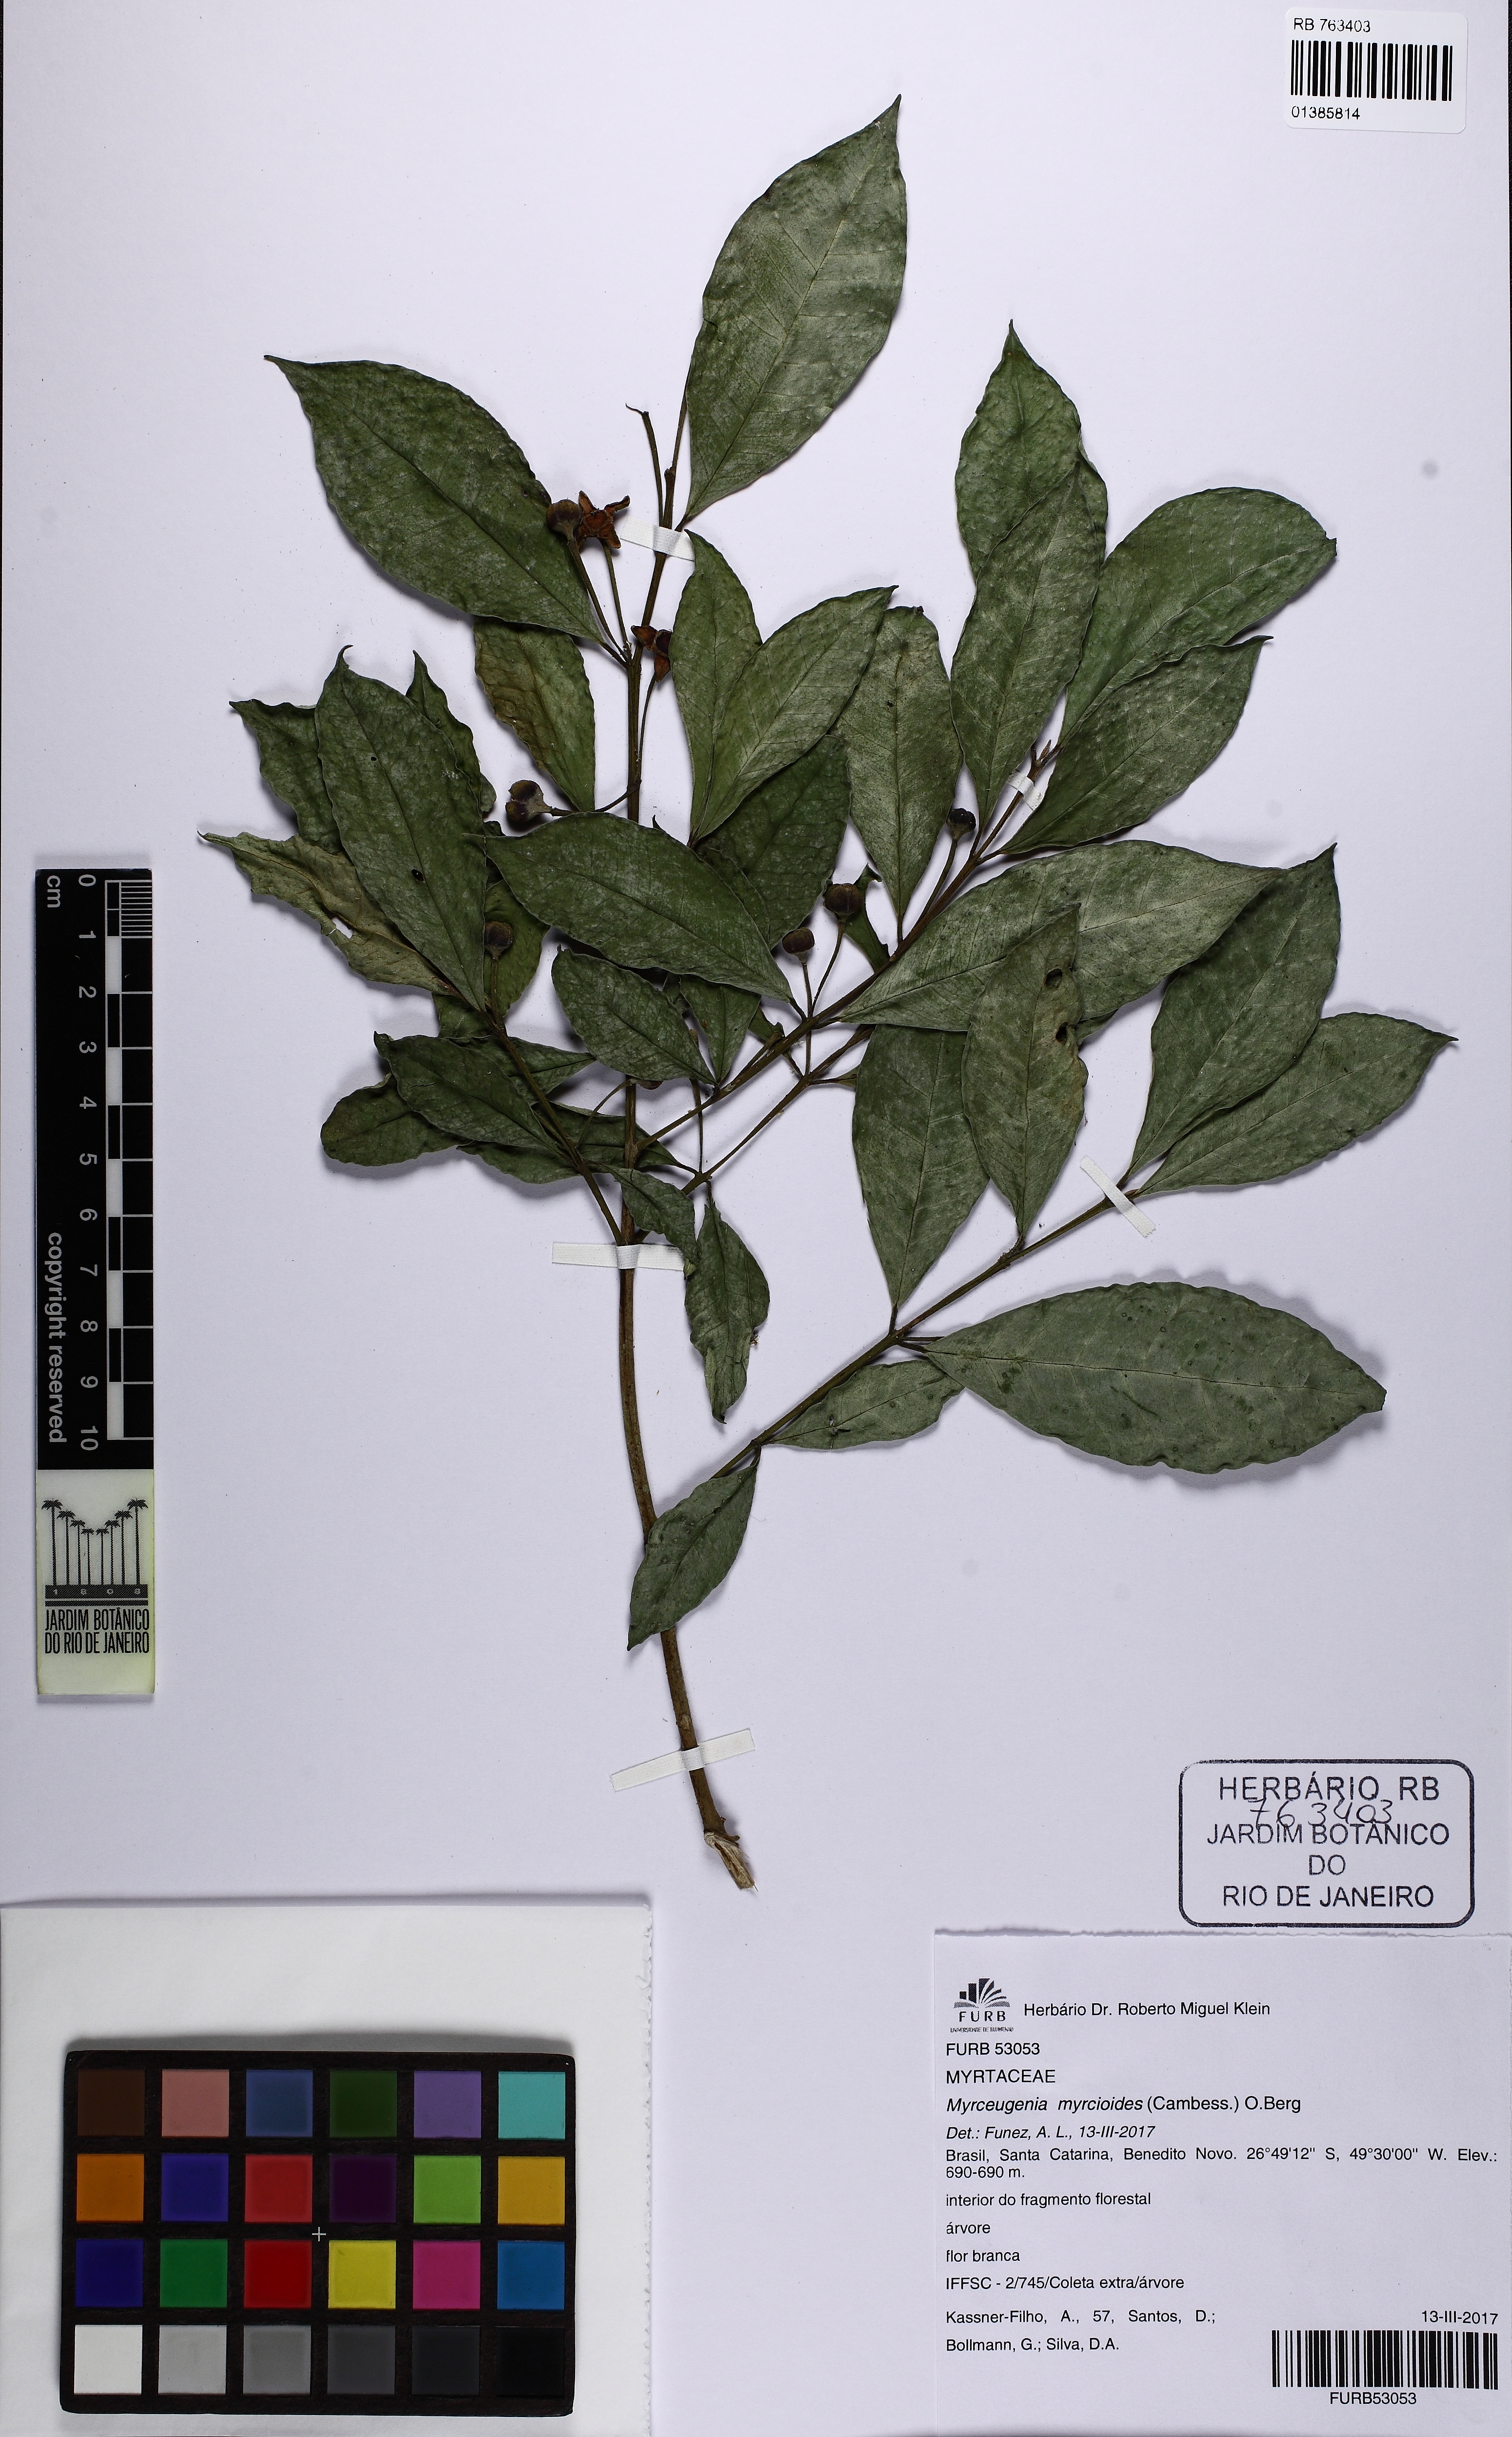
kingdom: Plantae
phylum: Tracheophyta
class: Magnoliopsida
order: Myrtales
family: Myrtaceae
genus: Myrceugenia
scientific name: Myrceugenia myrcioides
